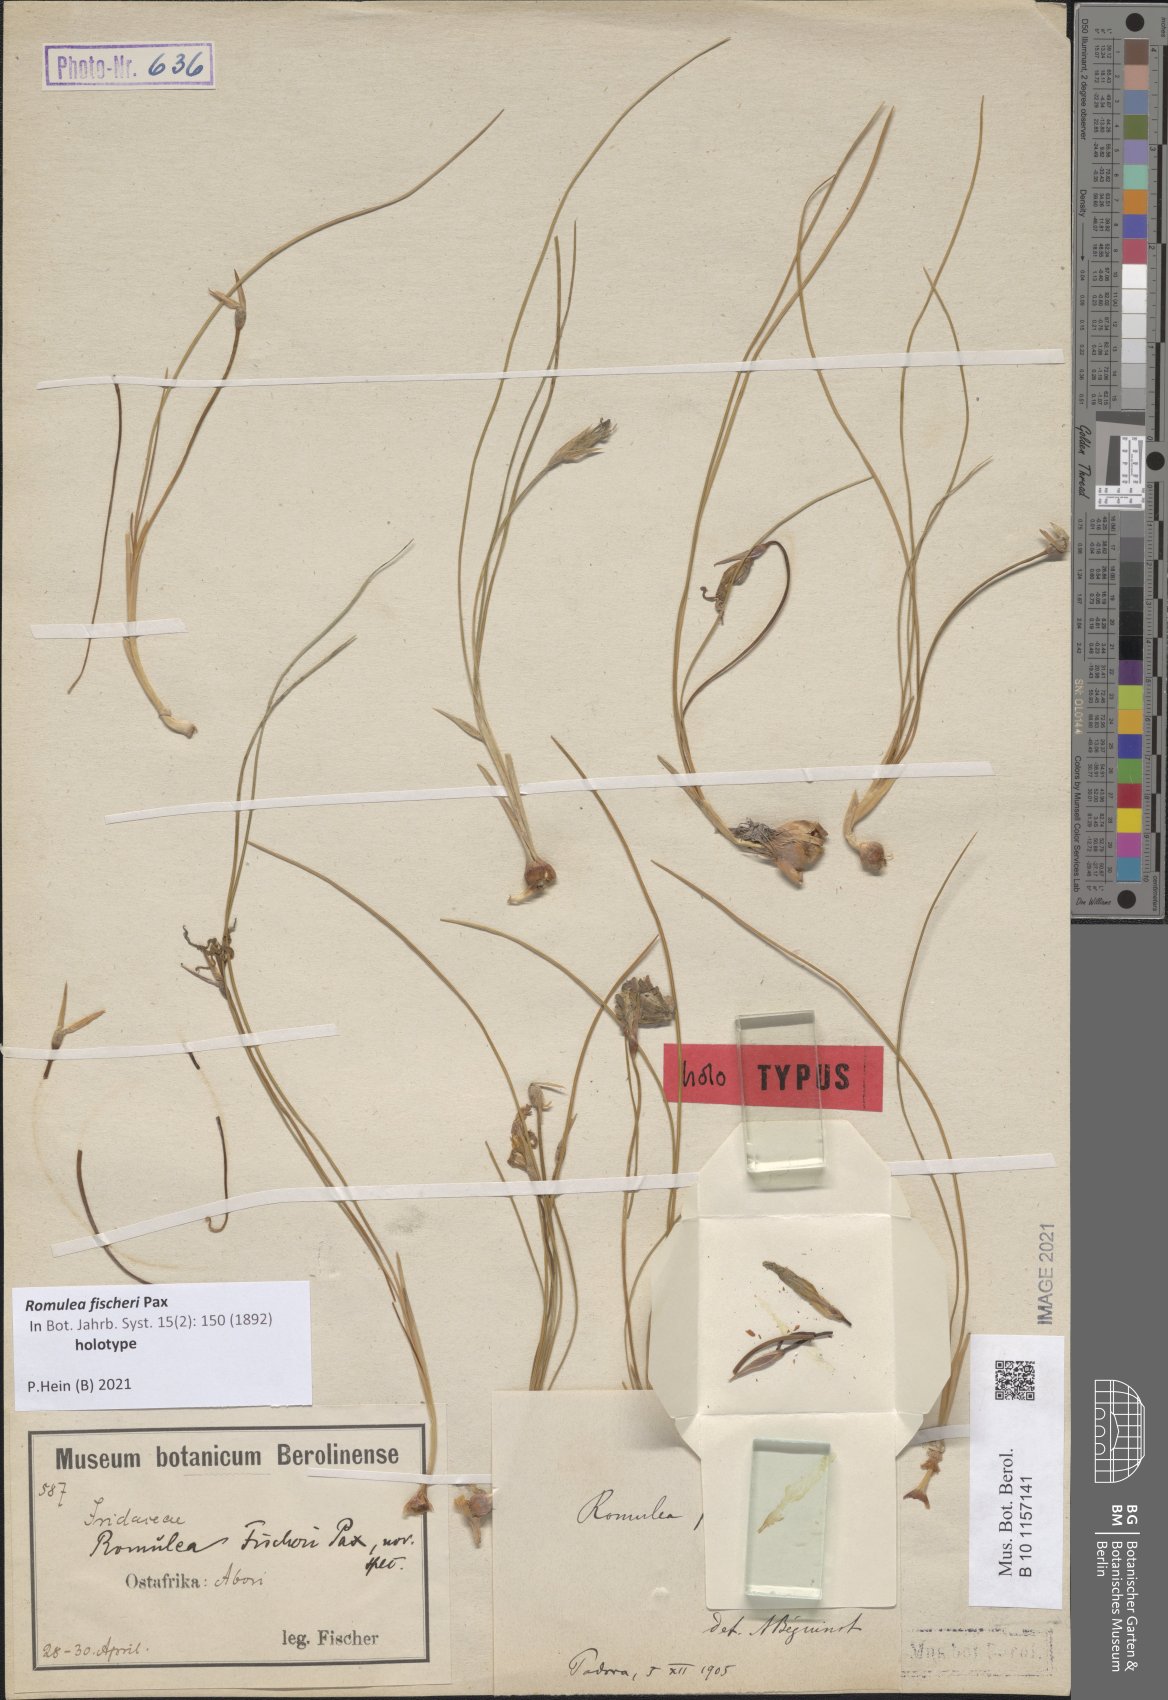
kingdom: Plantae
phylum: Tracheophyta
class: Liliopsida
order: Asparagales
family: Iridaceae
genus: Romulea
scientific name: Romulea fischeri
